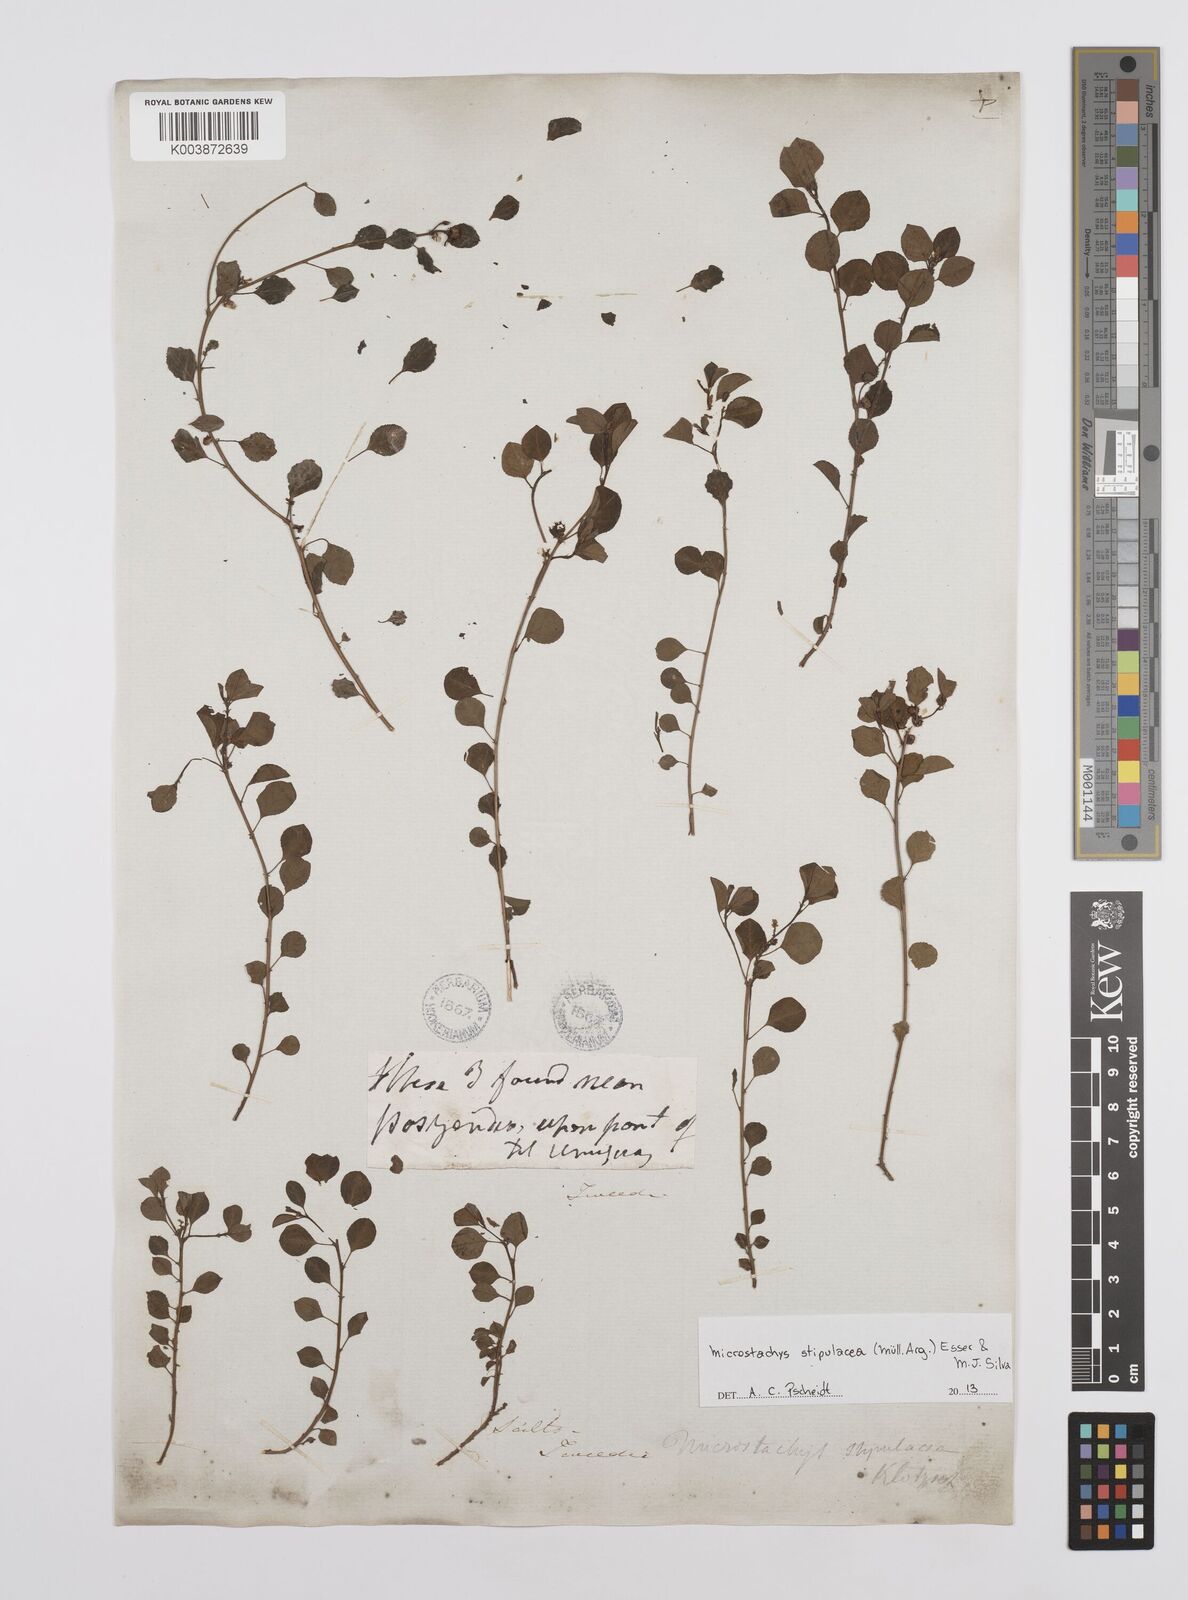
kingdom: Plantae
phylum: Tracheophyta
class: Magnoliopsida
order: Malpighiales
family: Euphorbiaceae
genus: Microstachys
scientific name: Microstachys stipulacea
